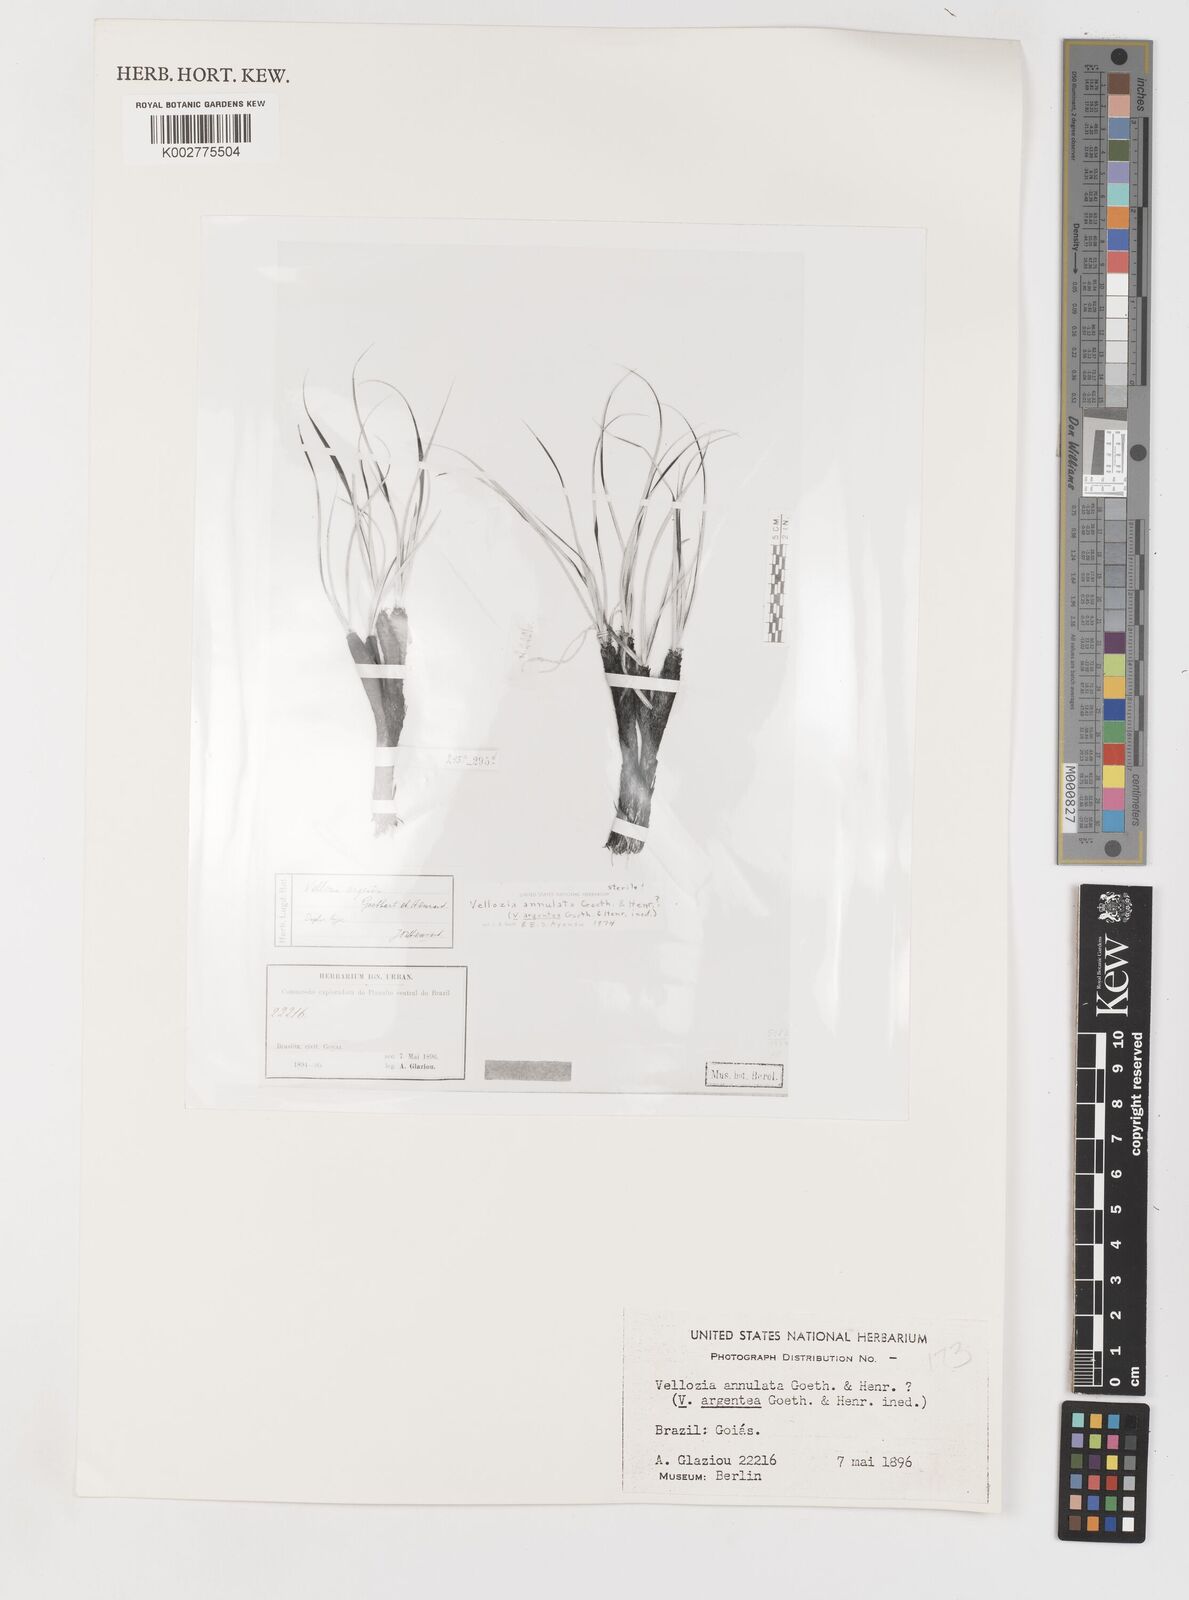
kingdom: Plantae
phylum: Tracheophyta
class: Liliopsida
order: Pandanales
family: Velloziaceae
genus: Vellozia
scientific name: Vellozia tubiflora
